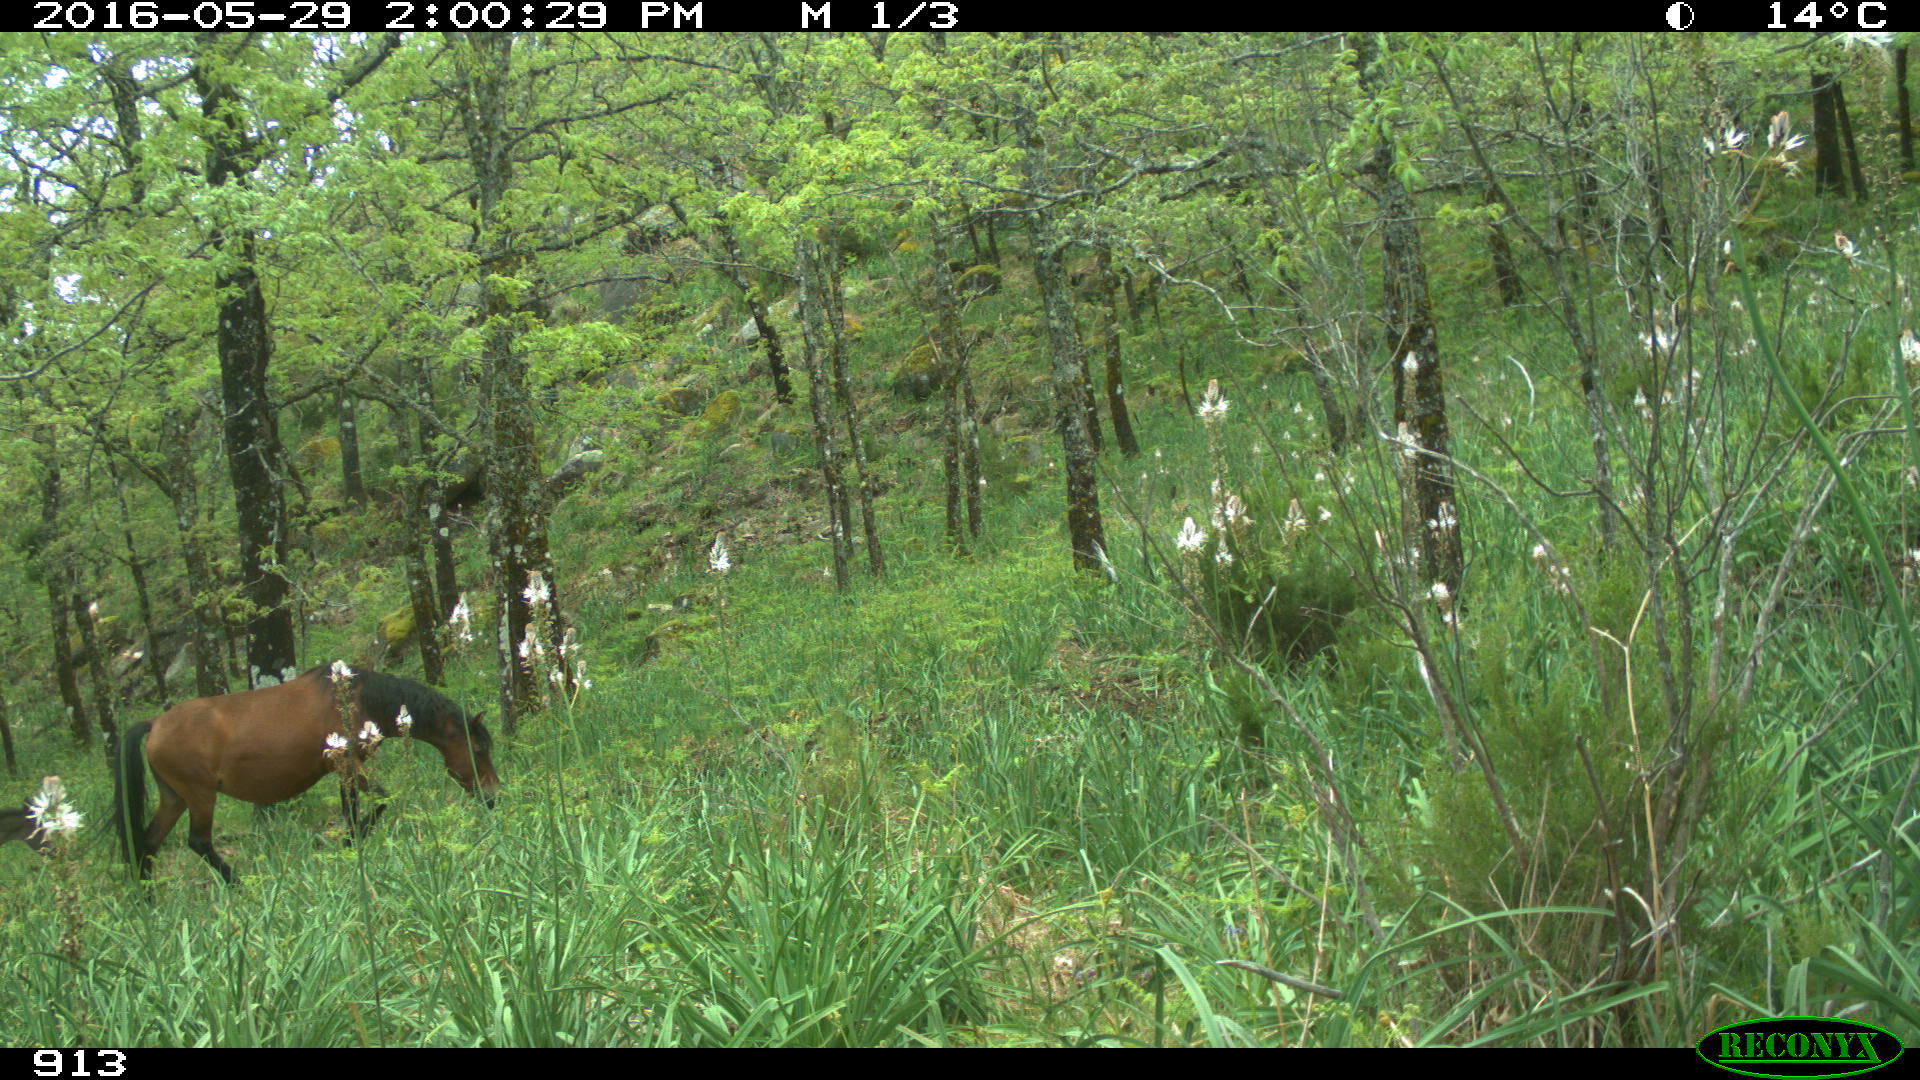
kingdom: Animalia
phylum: Chordata
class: Mammalia
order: Perissodactyla
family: Equidae
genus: Equus
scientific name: Equus caballus
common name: Horse
